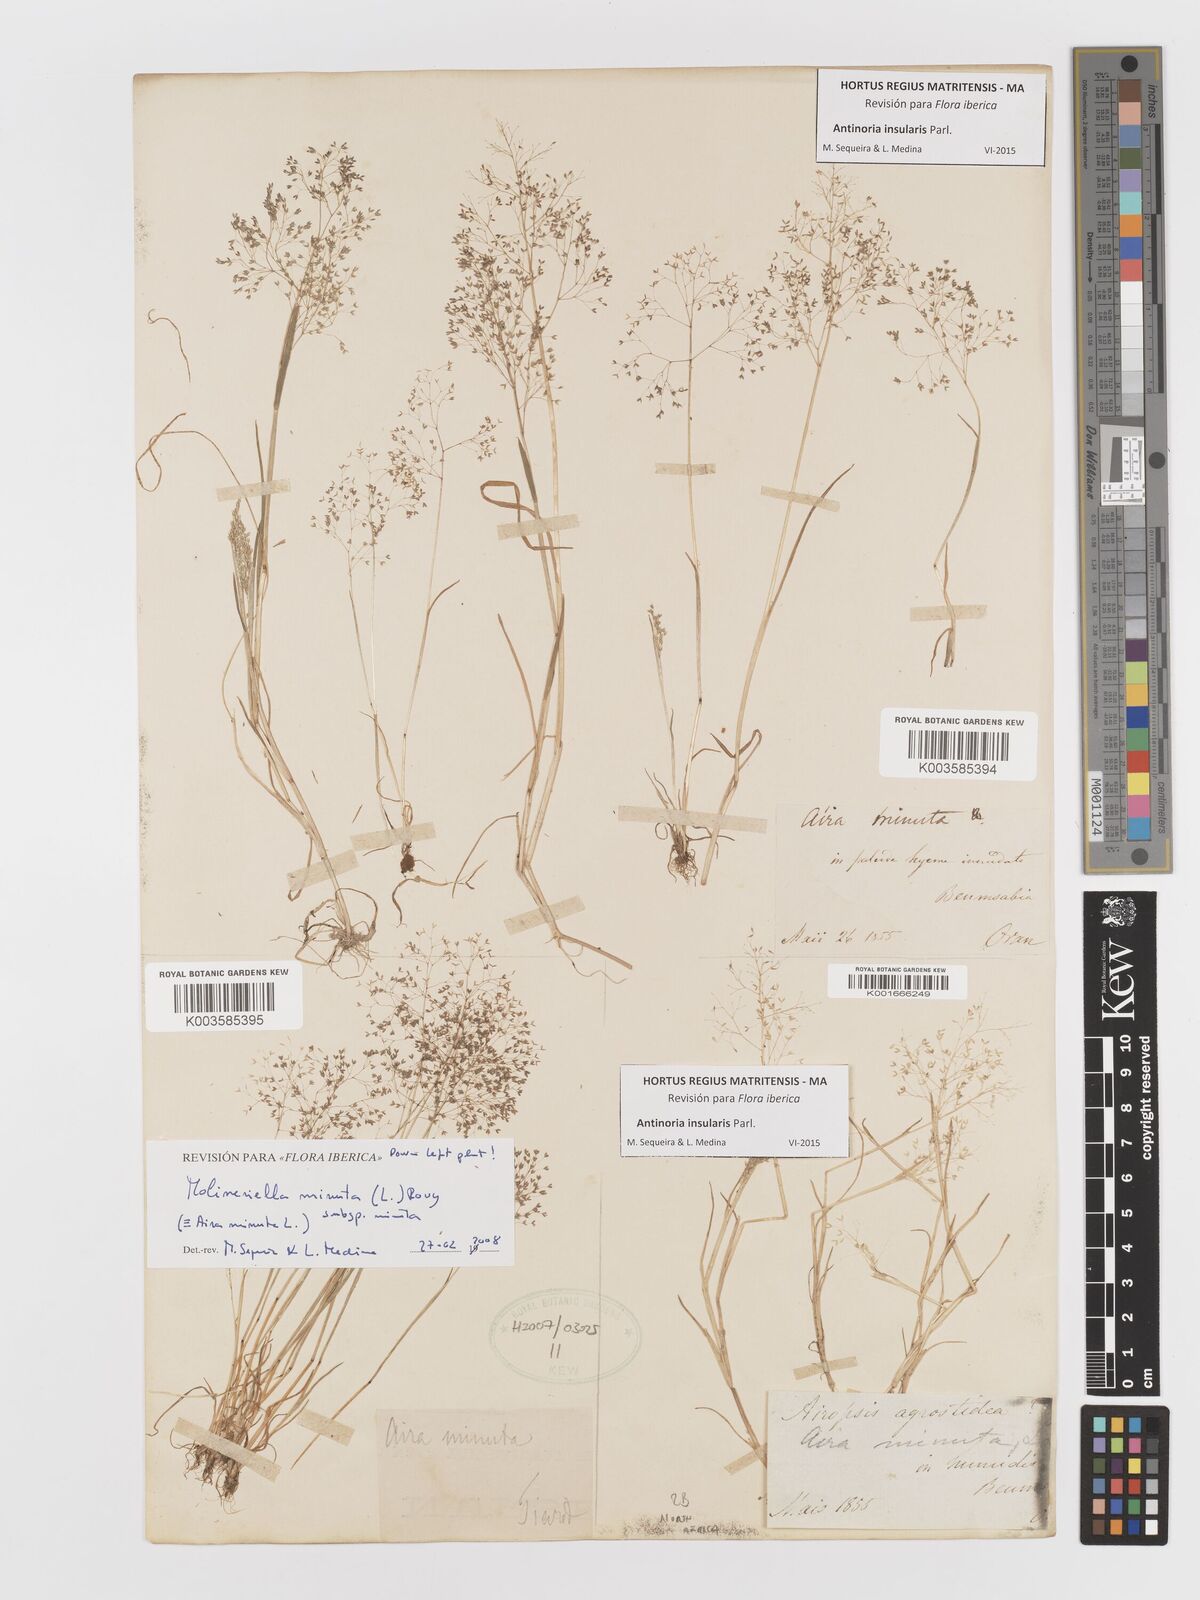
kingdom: Plantae
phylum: Tracheophyta
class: Liliopsida
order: Poales
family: Poaceae
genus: Antinoria
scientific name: Antinoria insularis
